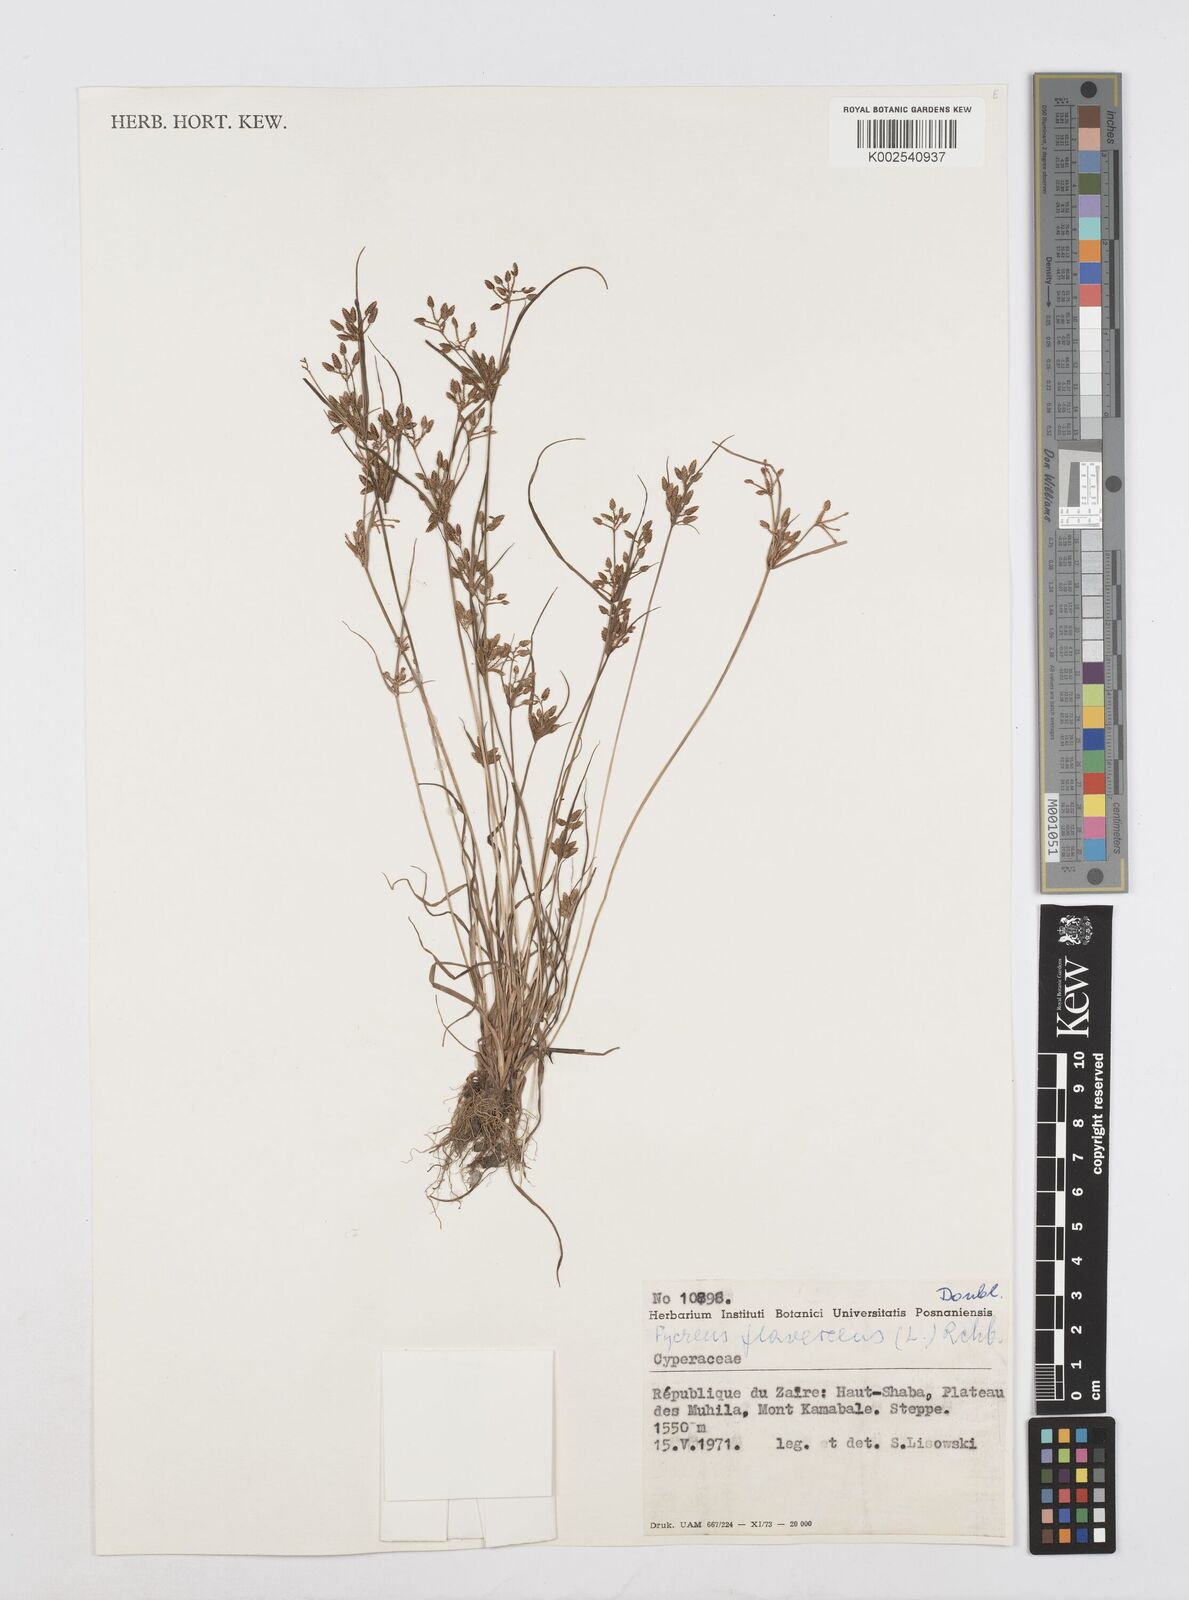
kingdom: Plantae
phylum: Tracheophyta
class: Liliopsida
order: Poales
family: Cyperaceae
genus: Cyperus
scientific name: Cyperus flavescens
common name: Yellow galingale
